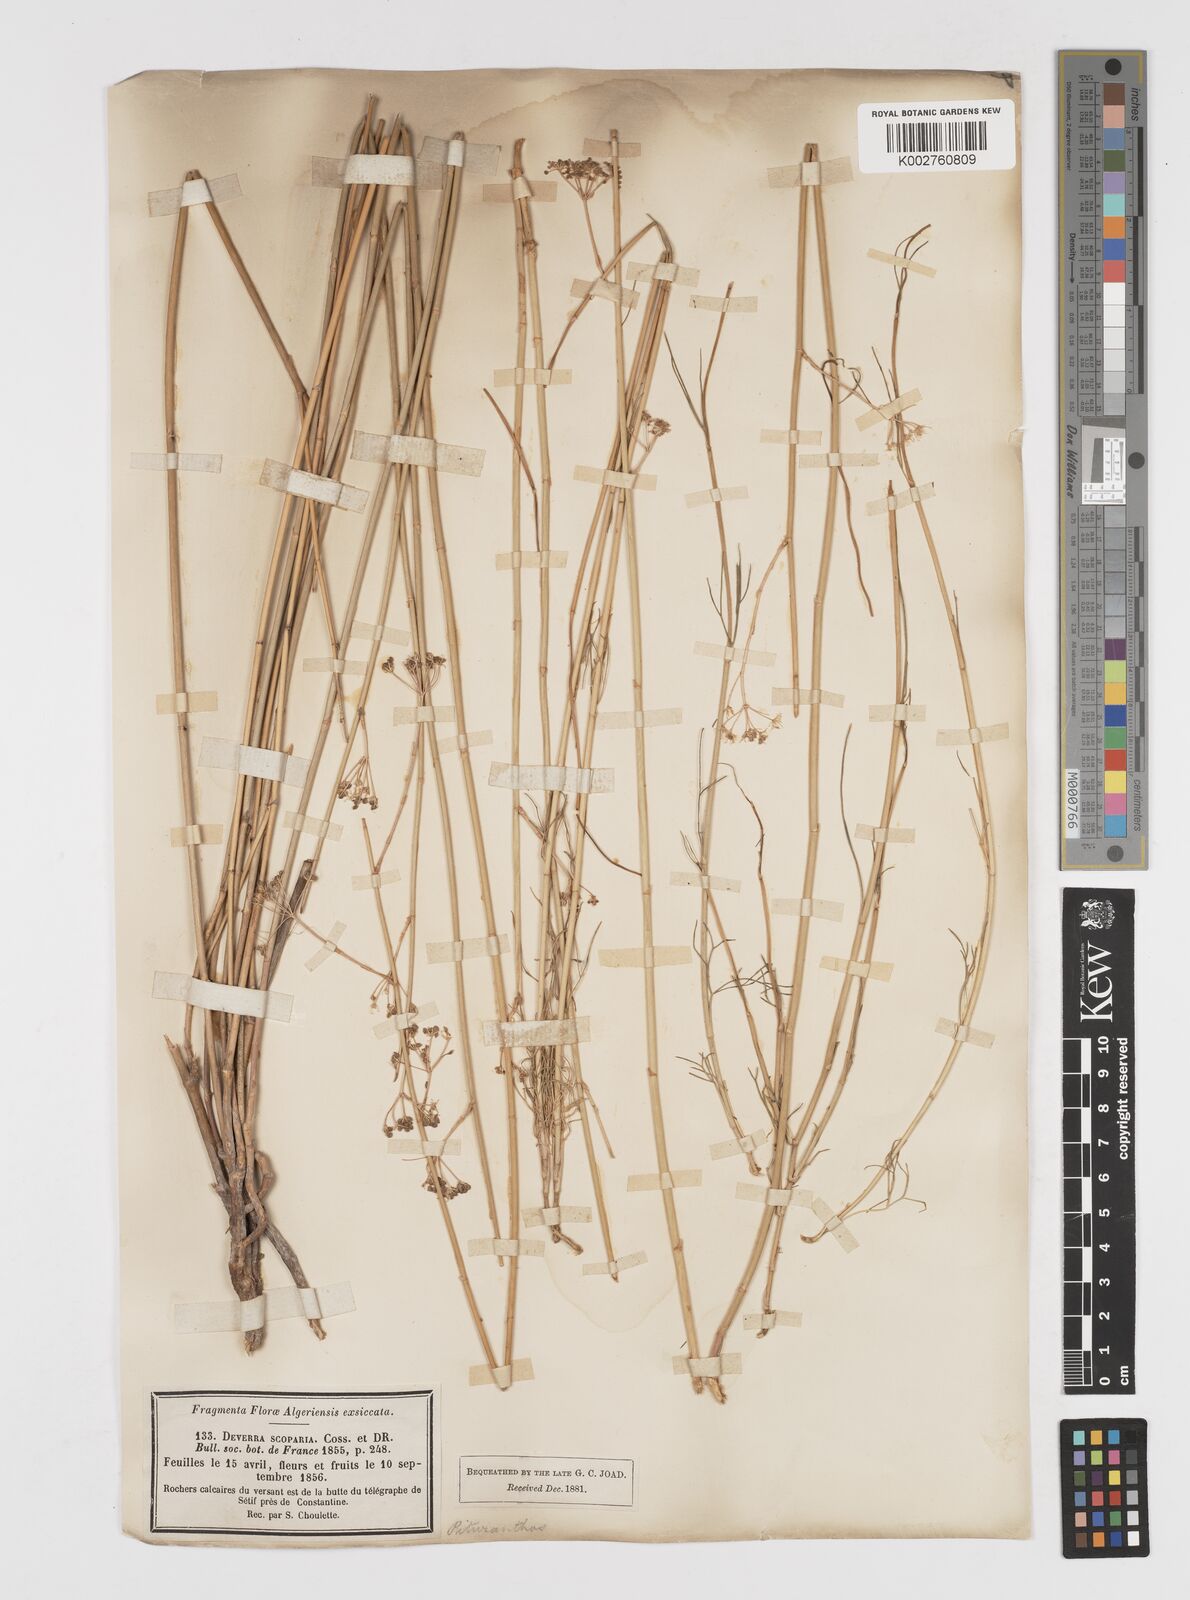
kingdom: Plantae
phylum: Tracheophyta
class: Magnoliopsida
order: Apiales
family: Apiaceae
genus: Deverra
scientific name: Deverra scoparia
